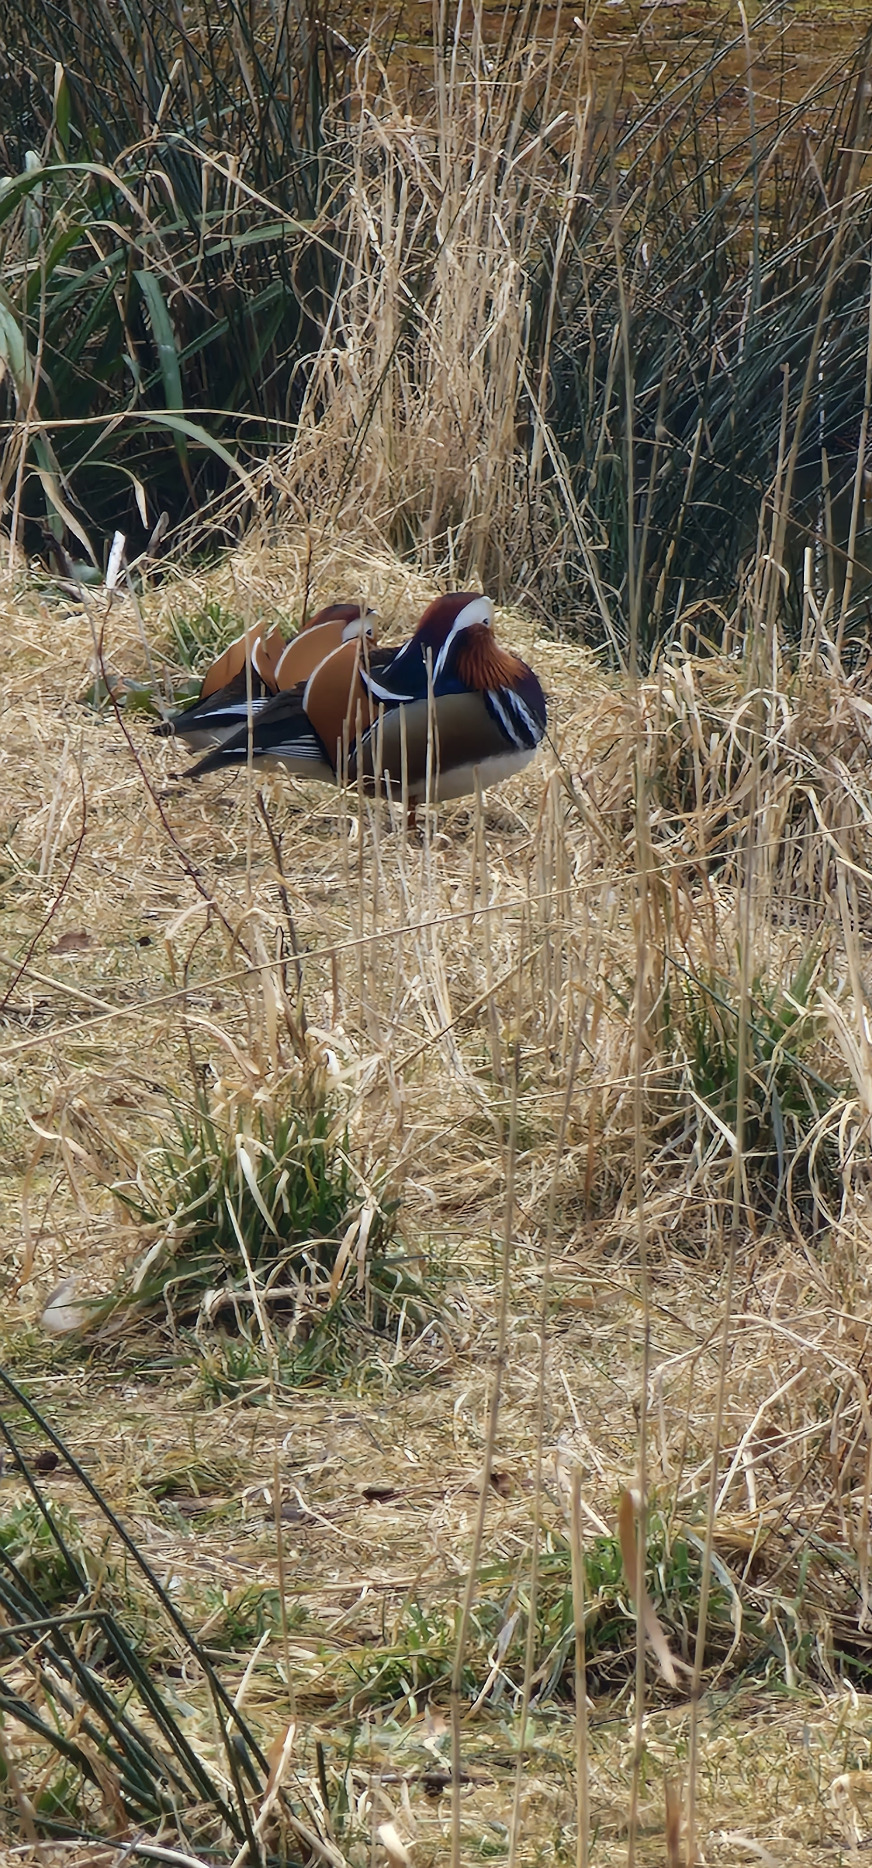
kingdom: Animalia
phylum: Chordata
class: Aves
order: Anseriformes
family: Anatidae
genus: Aix
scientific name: Aix galericulata
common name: Mandarinand
